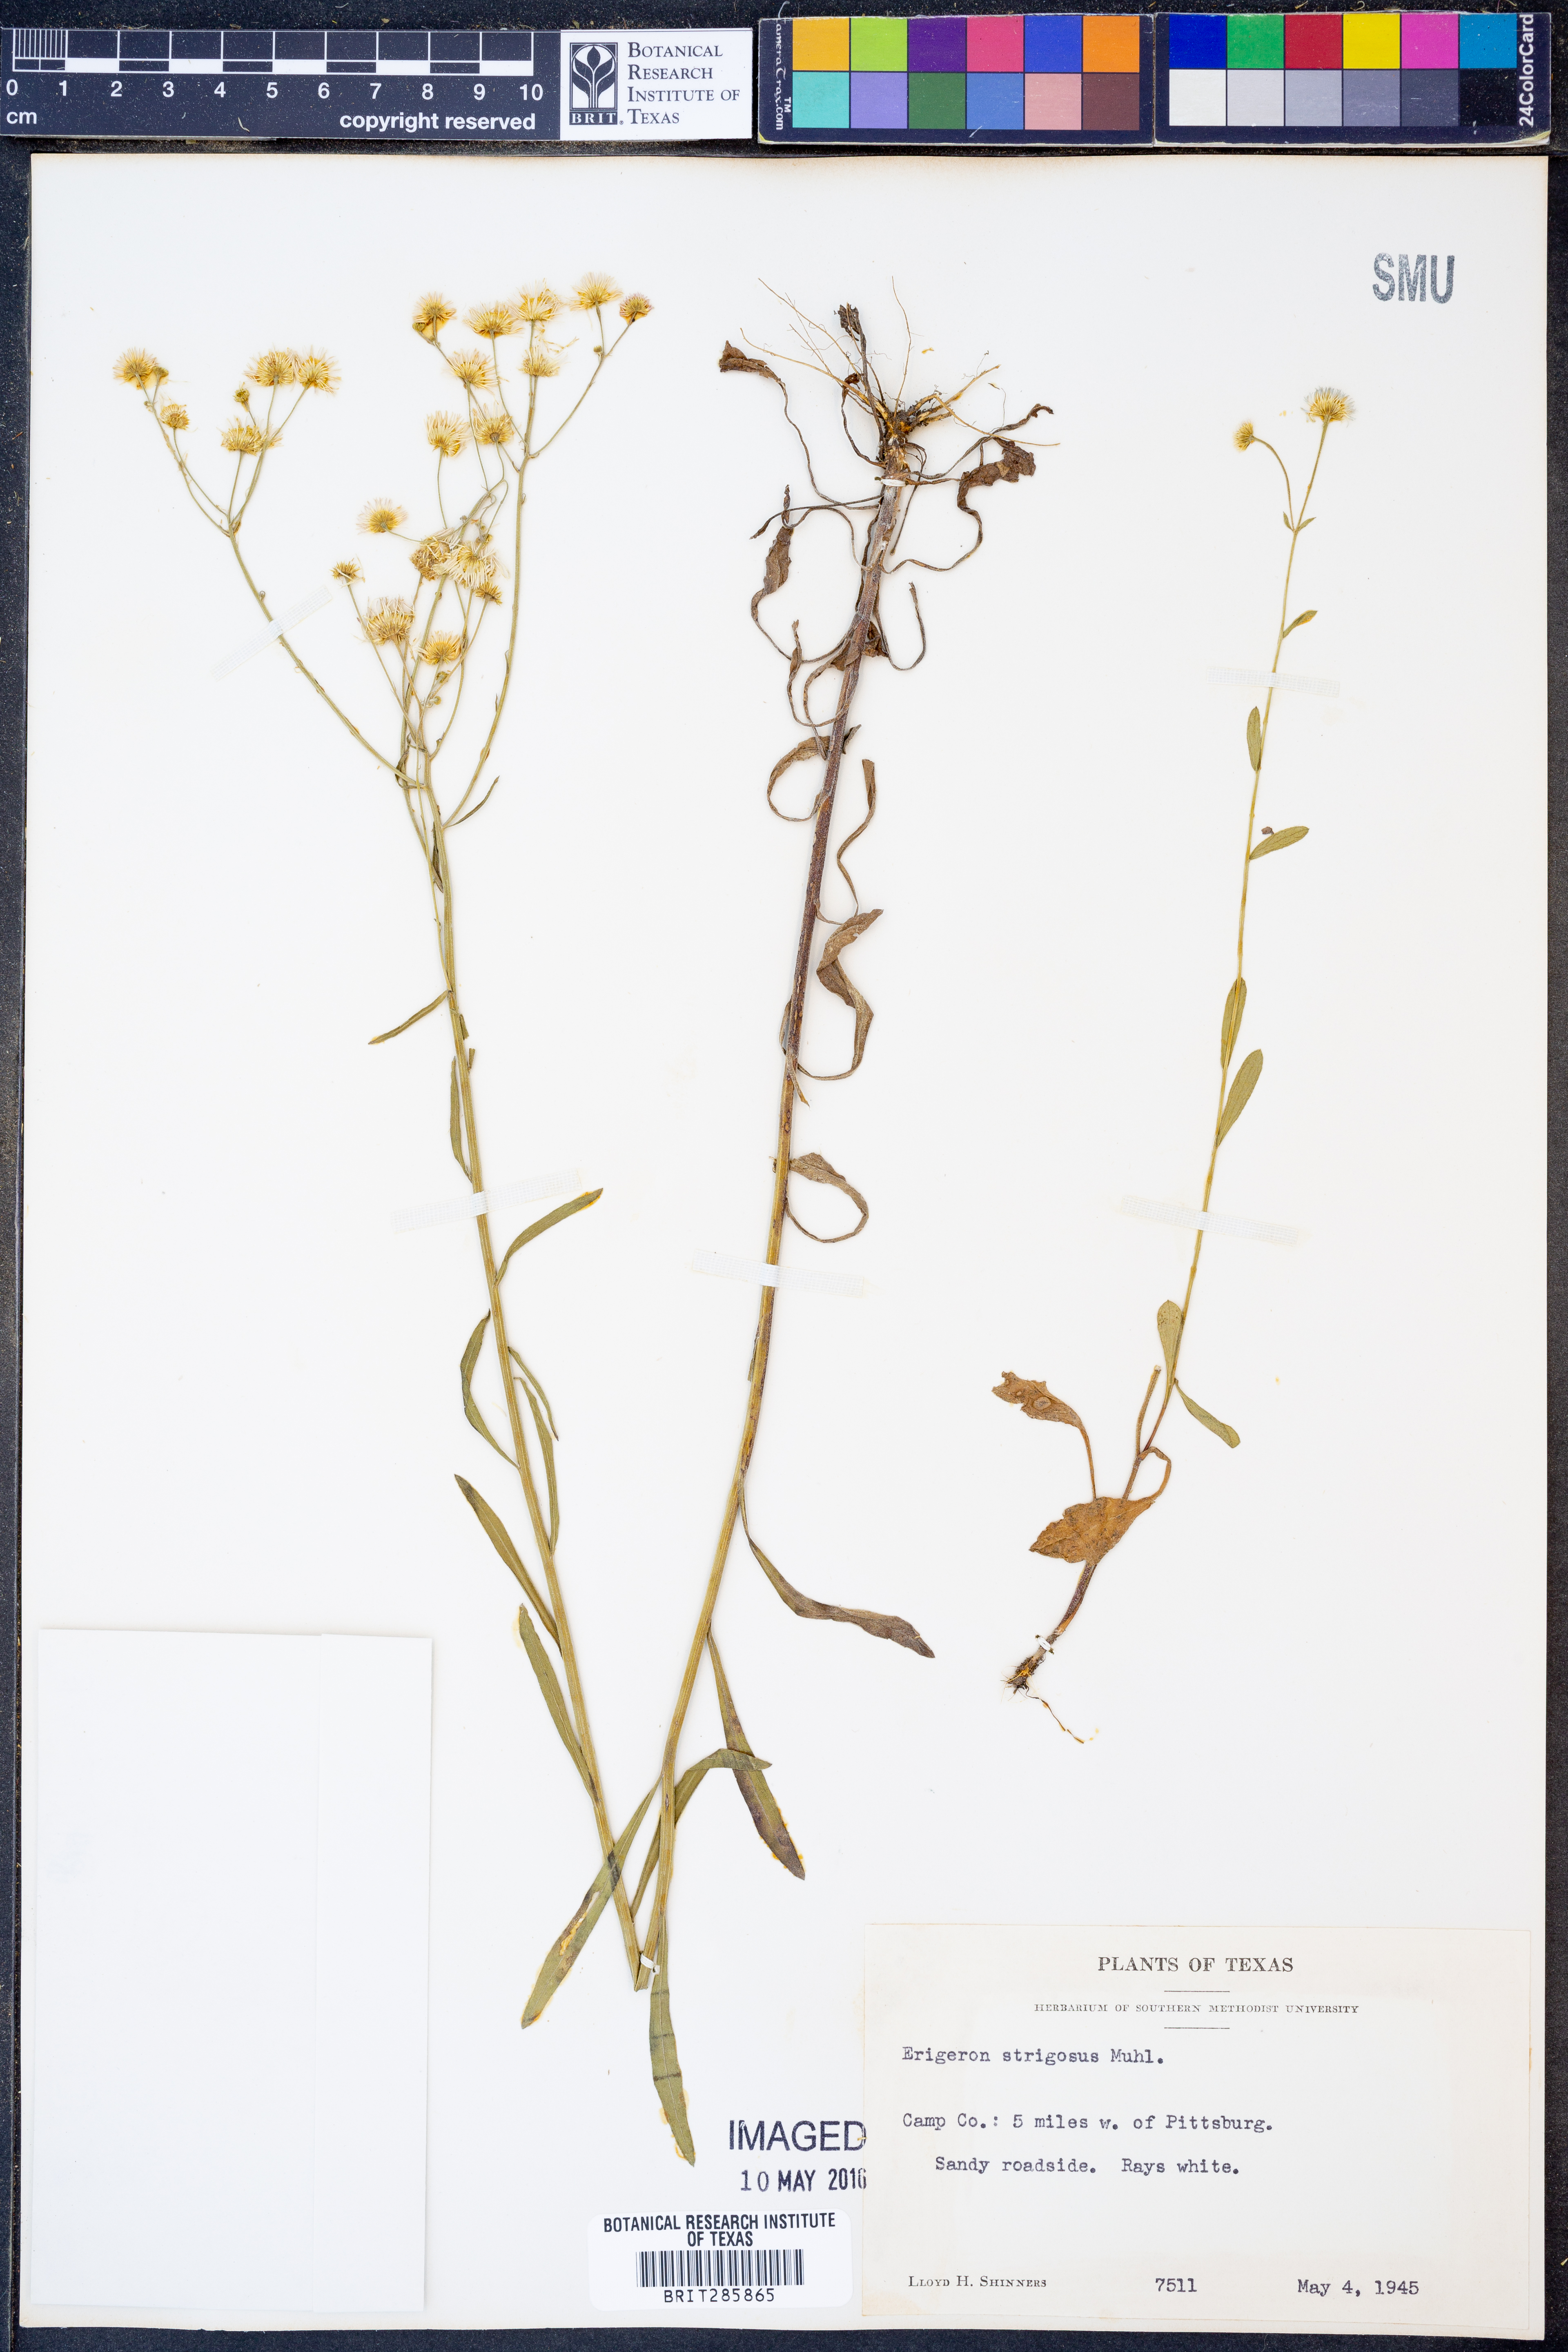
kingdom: Plantae
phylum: Tracheophyta
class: Magnoliopsida
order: Asterales
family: Asteraceae
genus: Erigeron
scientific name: Erigeron strigosus
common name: Common eastern fleabane
